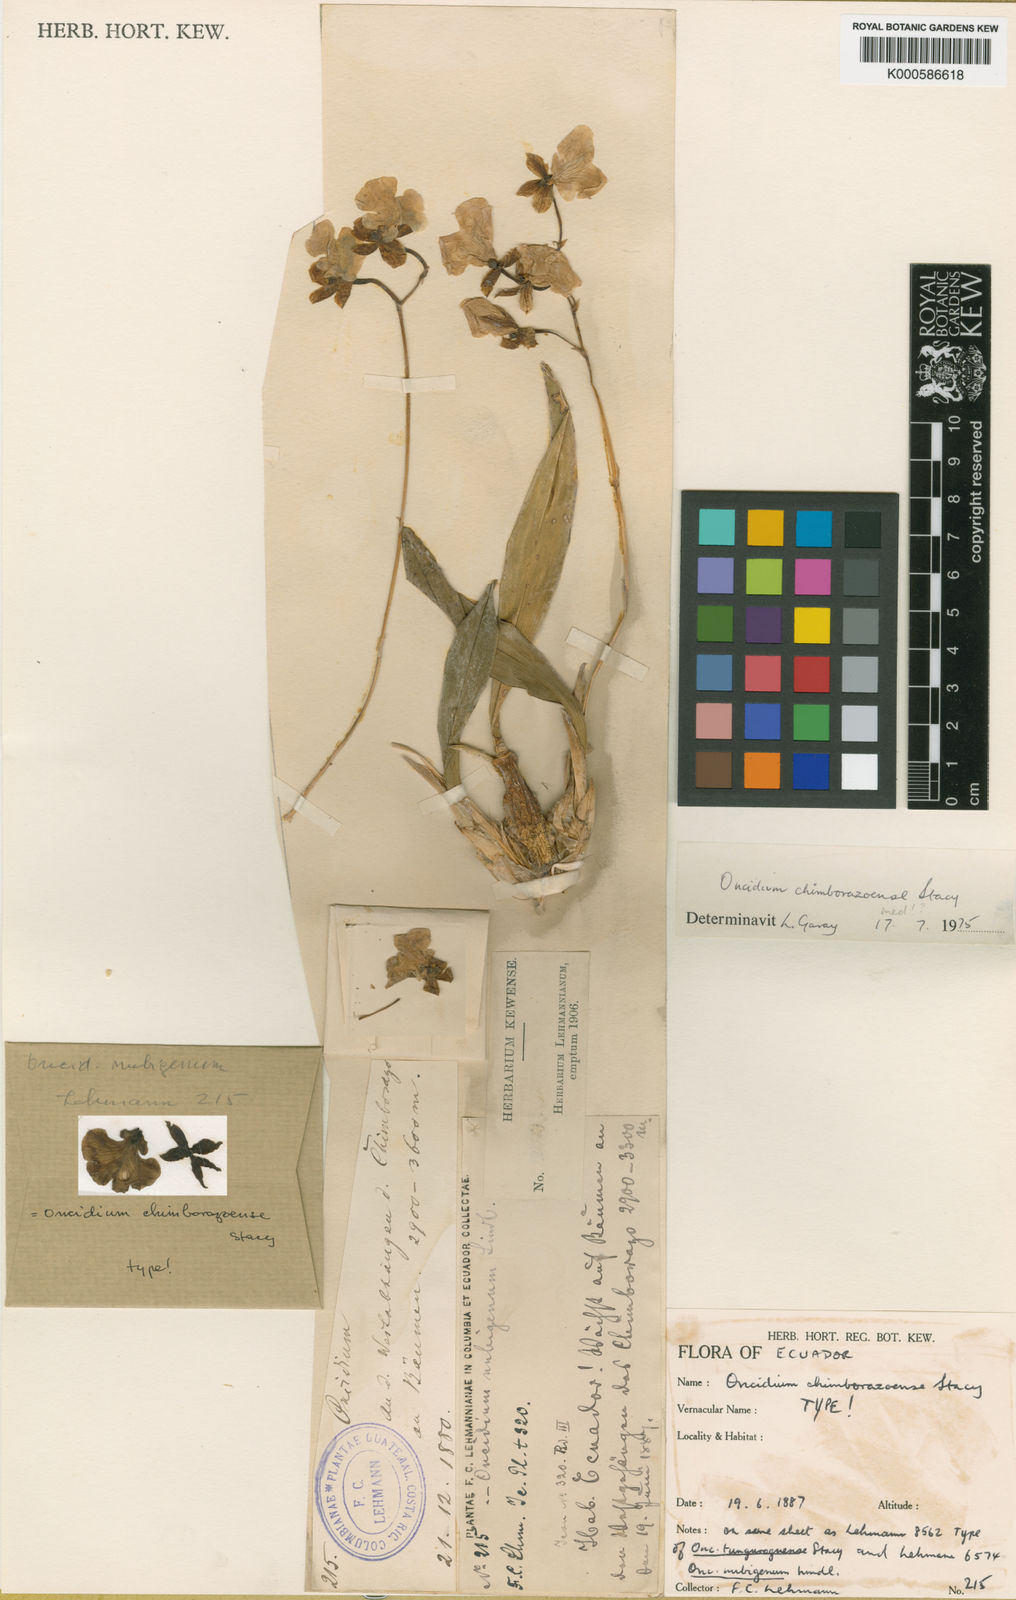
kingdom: Plantae
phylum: Tracheophyta
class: Liliopsida
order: Asparagales
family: Orchidaceae
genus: Caucaea
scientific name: Caucaea phalaenopsis
